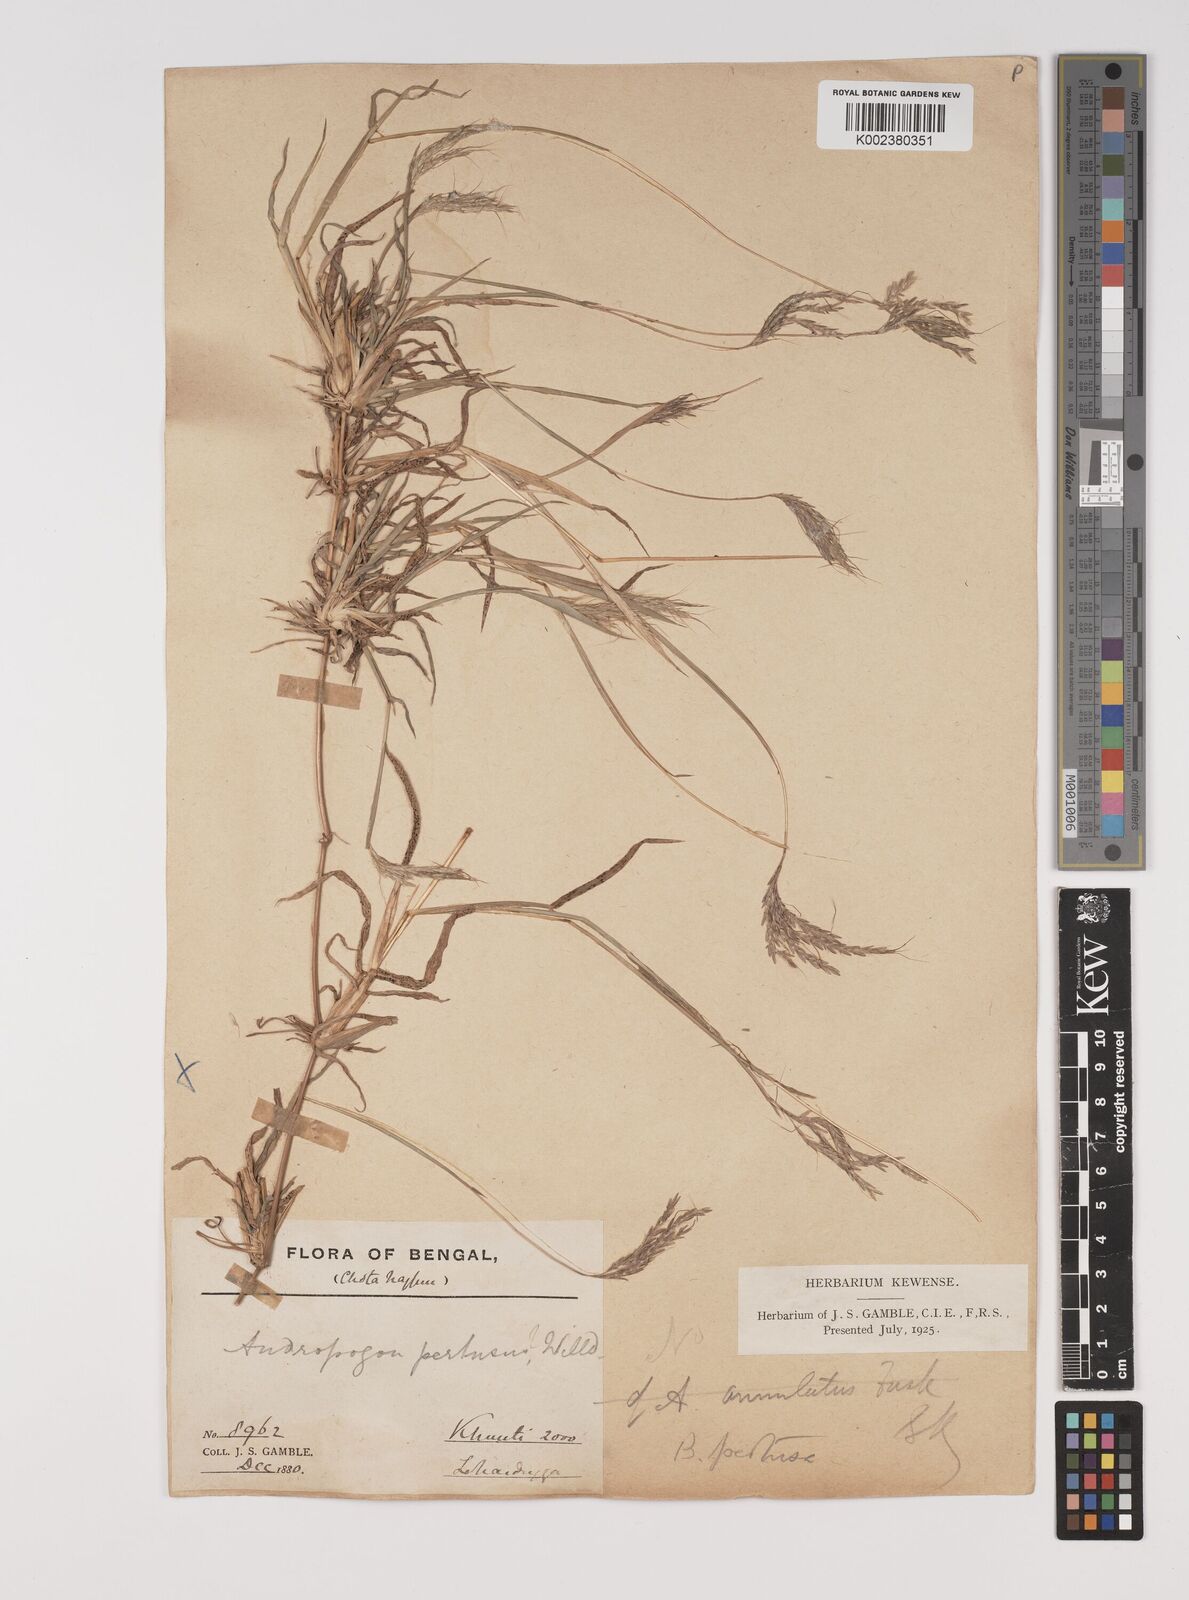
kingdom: Plantae
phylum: Tracheophyta
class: Liliopsida
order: Poales
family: Poaceae
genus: Bothriochloa
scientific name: Bothriochloa pertusa
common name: Pitted beardgrass
